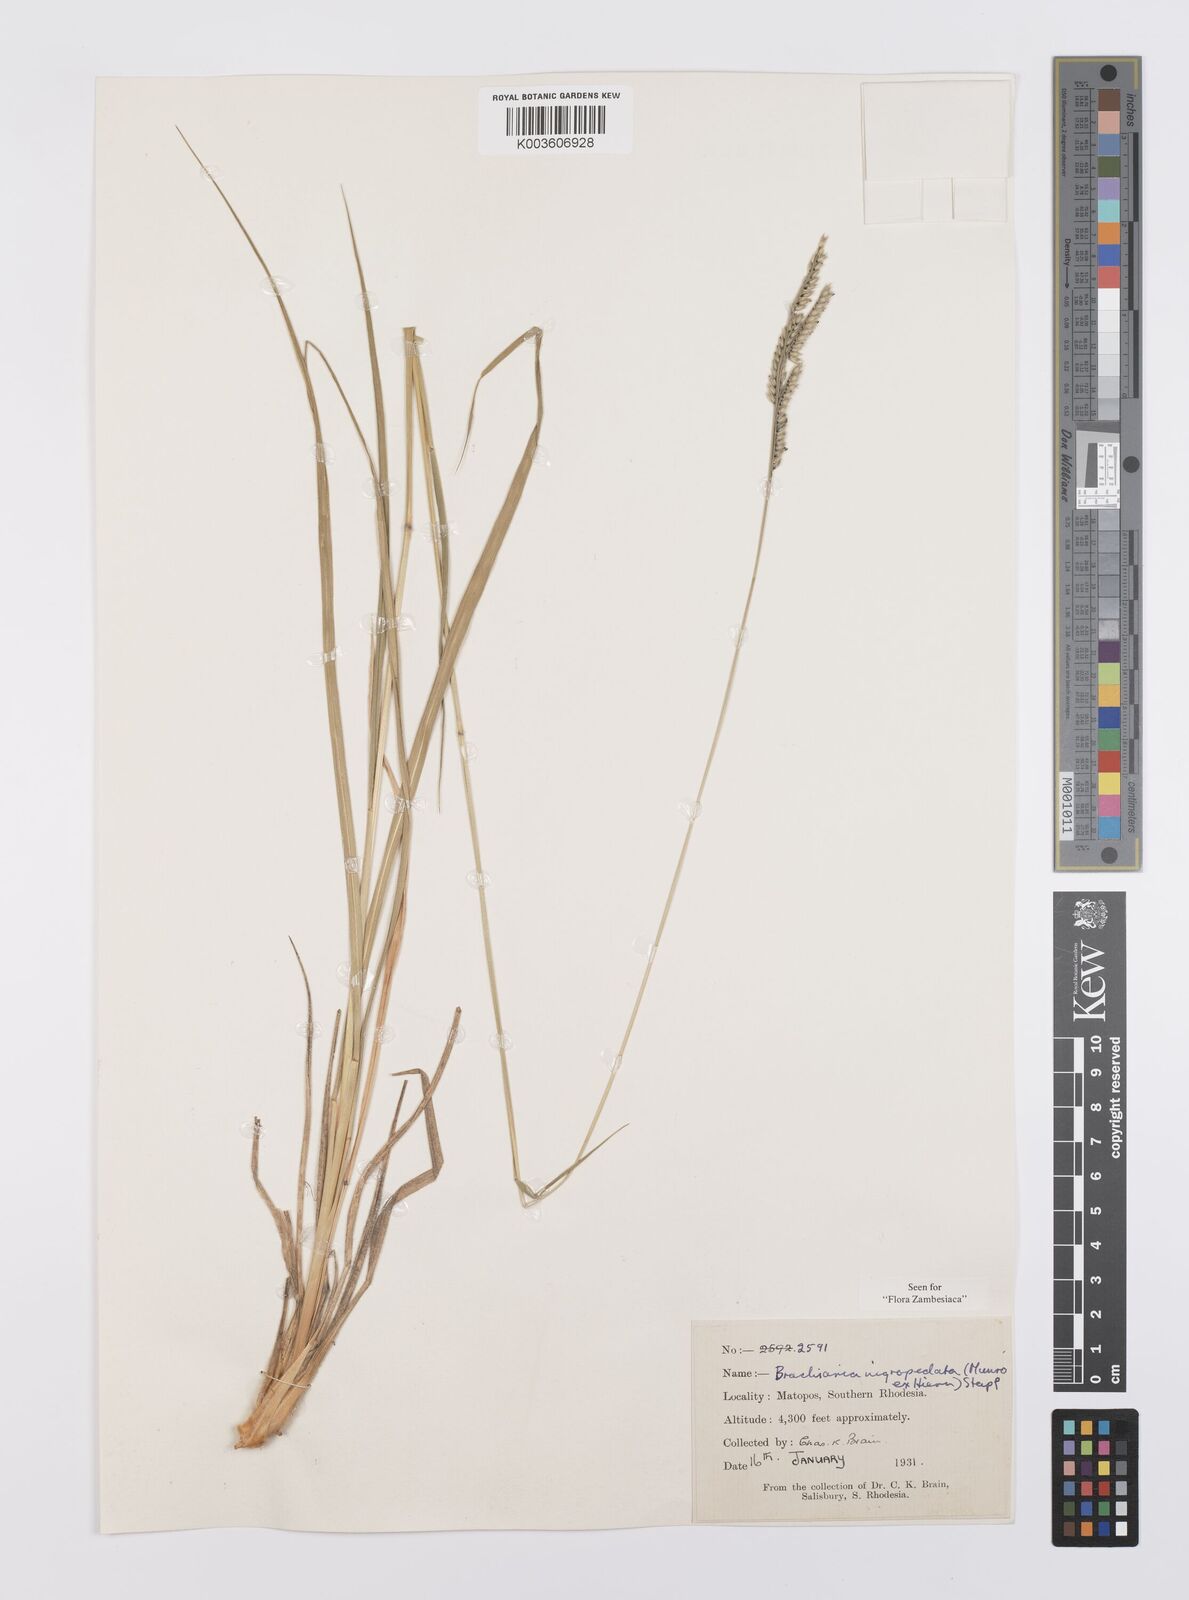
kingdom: Plantae
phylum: Tracheophyta
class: Liliopsida
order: Poales
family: Poaceae
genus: Urochloa
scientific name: Urochloa nigropedata
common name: Spotted signal grass
